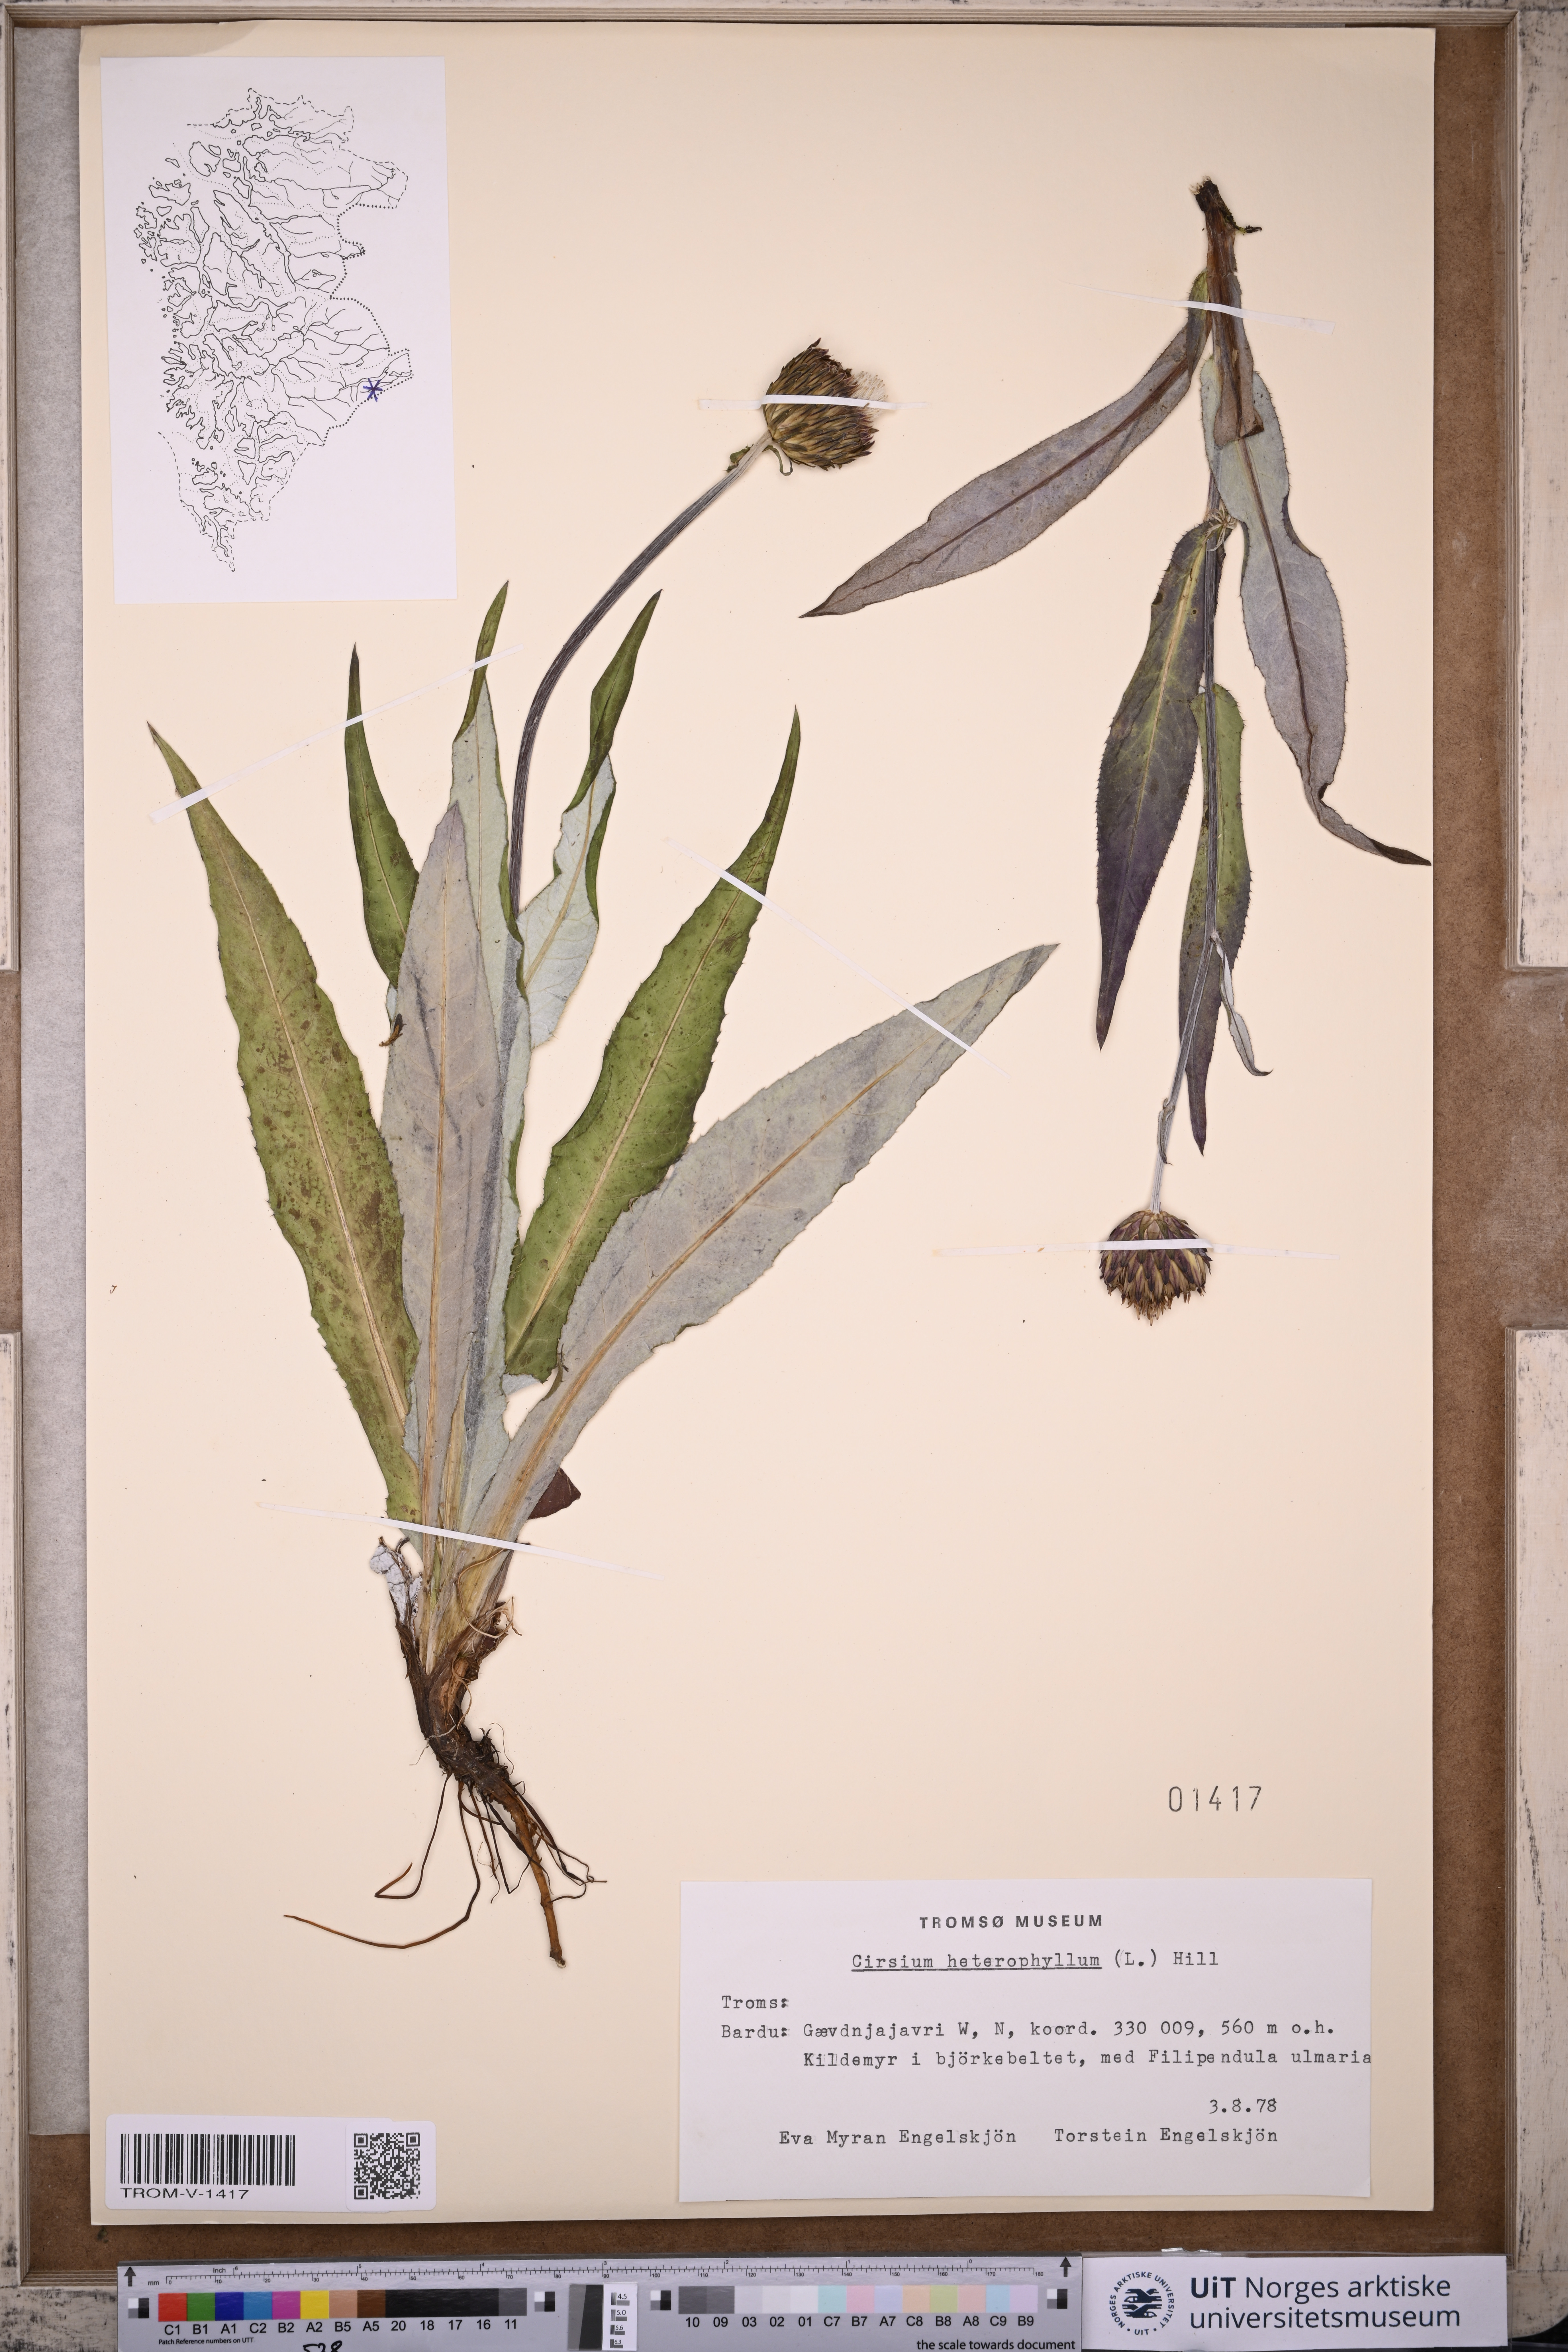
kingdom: Plantae
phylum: Tracheophyta
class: Magnoliopsida
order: Asterales
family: Asteraceae
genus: Cirsium
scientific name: Cirsium heterophyllum
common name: Melancholy thistle
